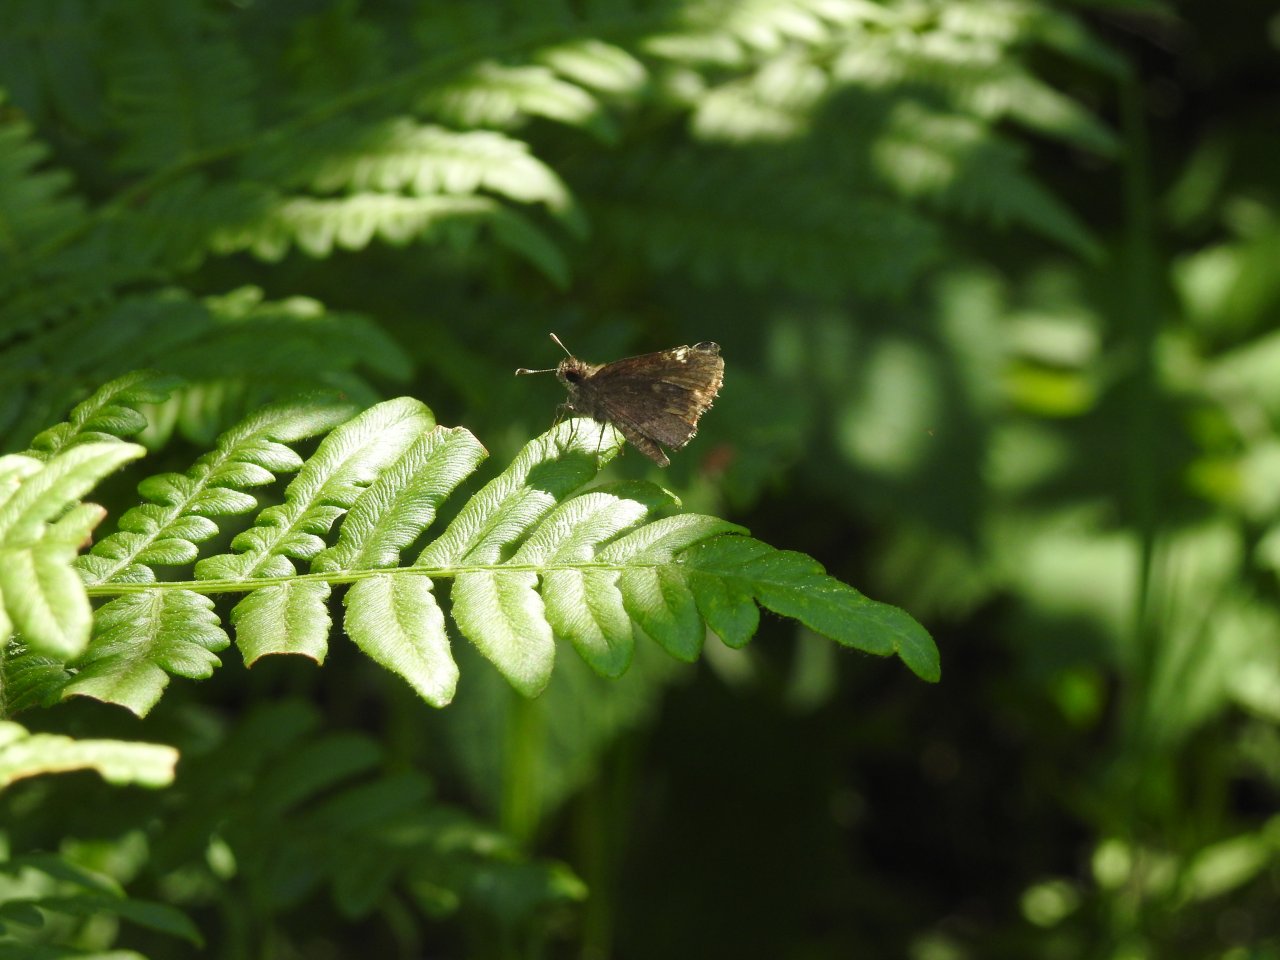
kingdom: Animalia
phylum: Arthropoda
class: Insecta
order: Lepidoptera
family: Hesperiidae
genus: Mastor
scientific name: Mastor vialis
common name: Common Roadside-Skipper
